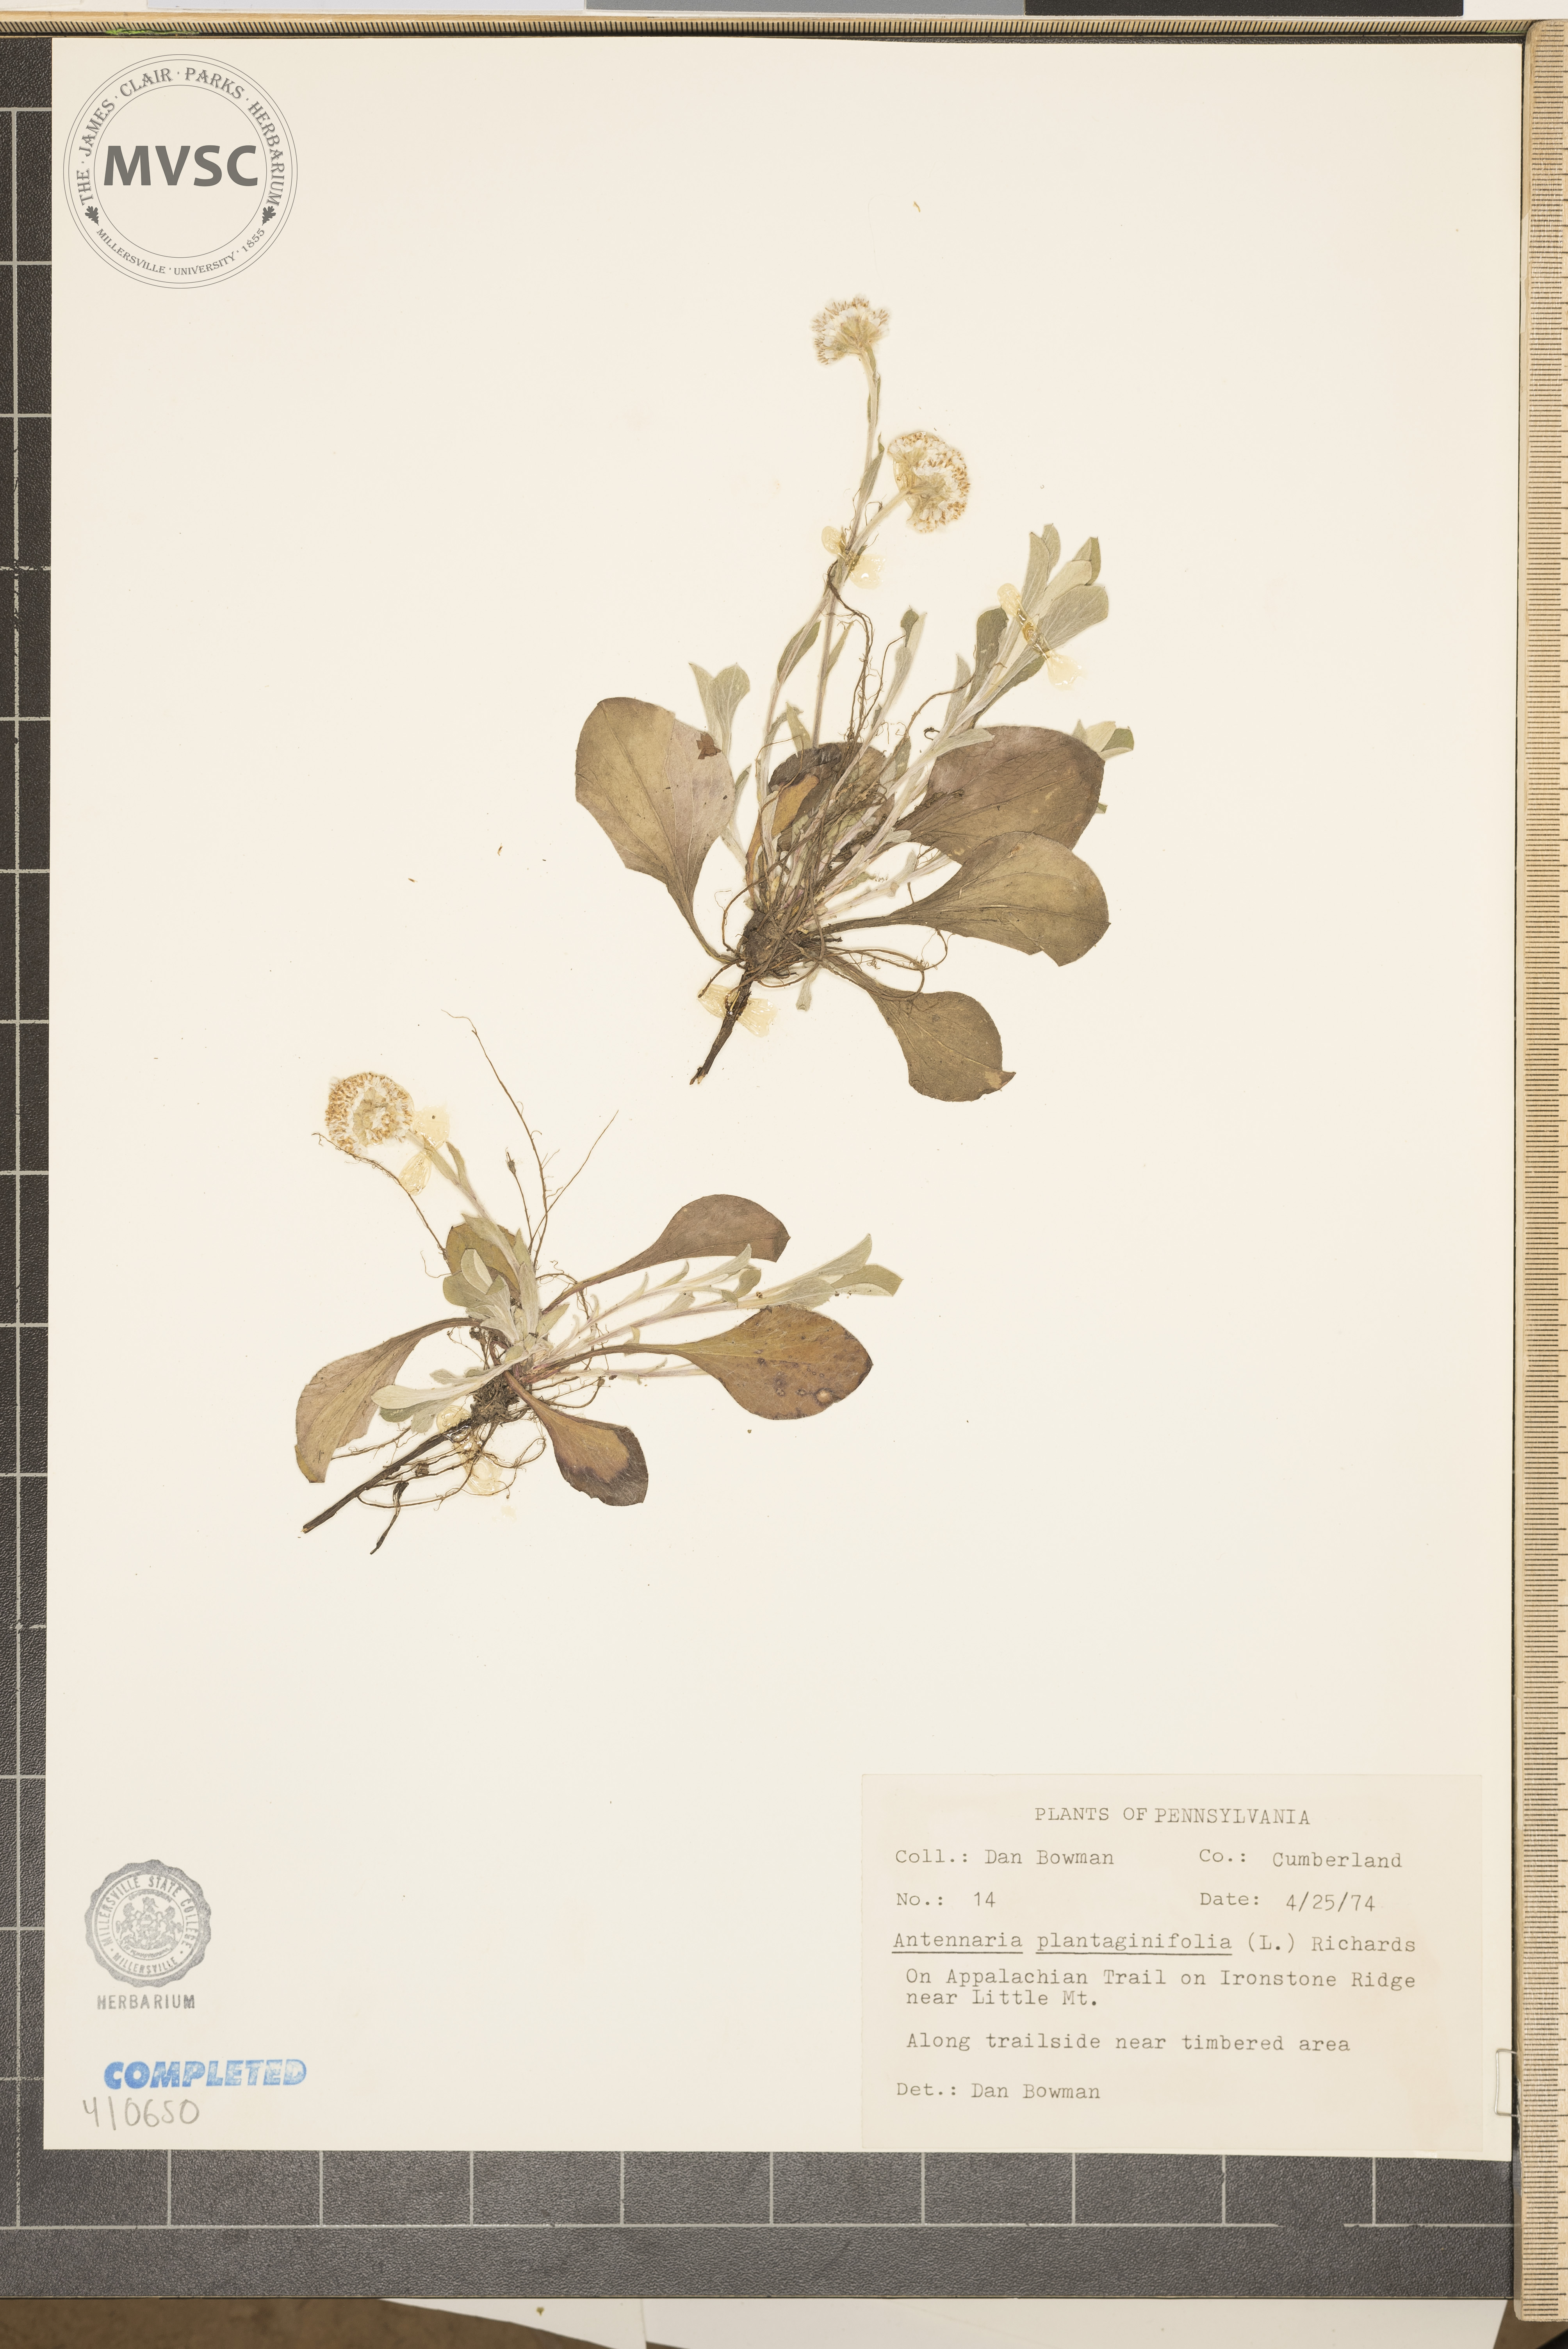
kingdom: Plantae
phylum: Tracheophyta
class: Magnoliopsida
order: Asterales
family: Asteraceae
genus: Antennaria
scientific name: Antennaria plantaginifolia
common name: Plantain-leaved pussytoes
